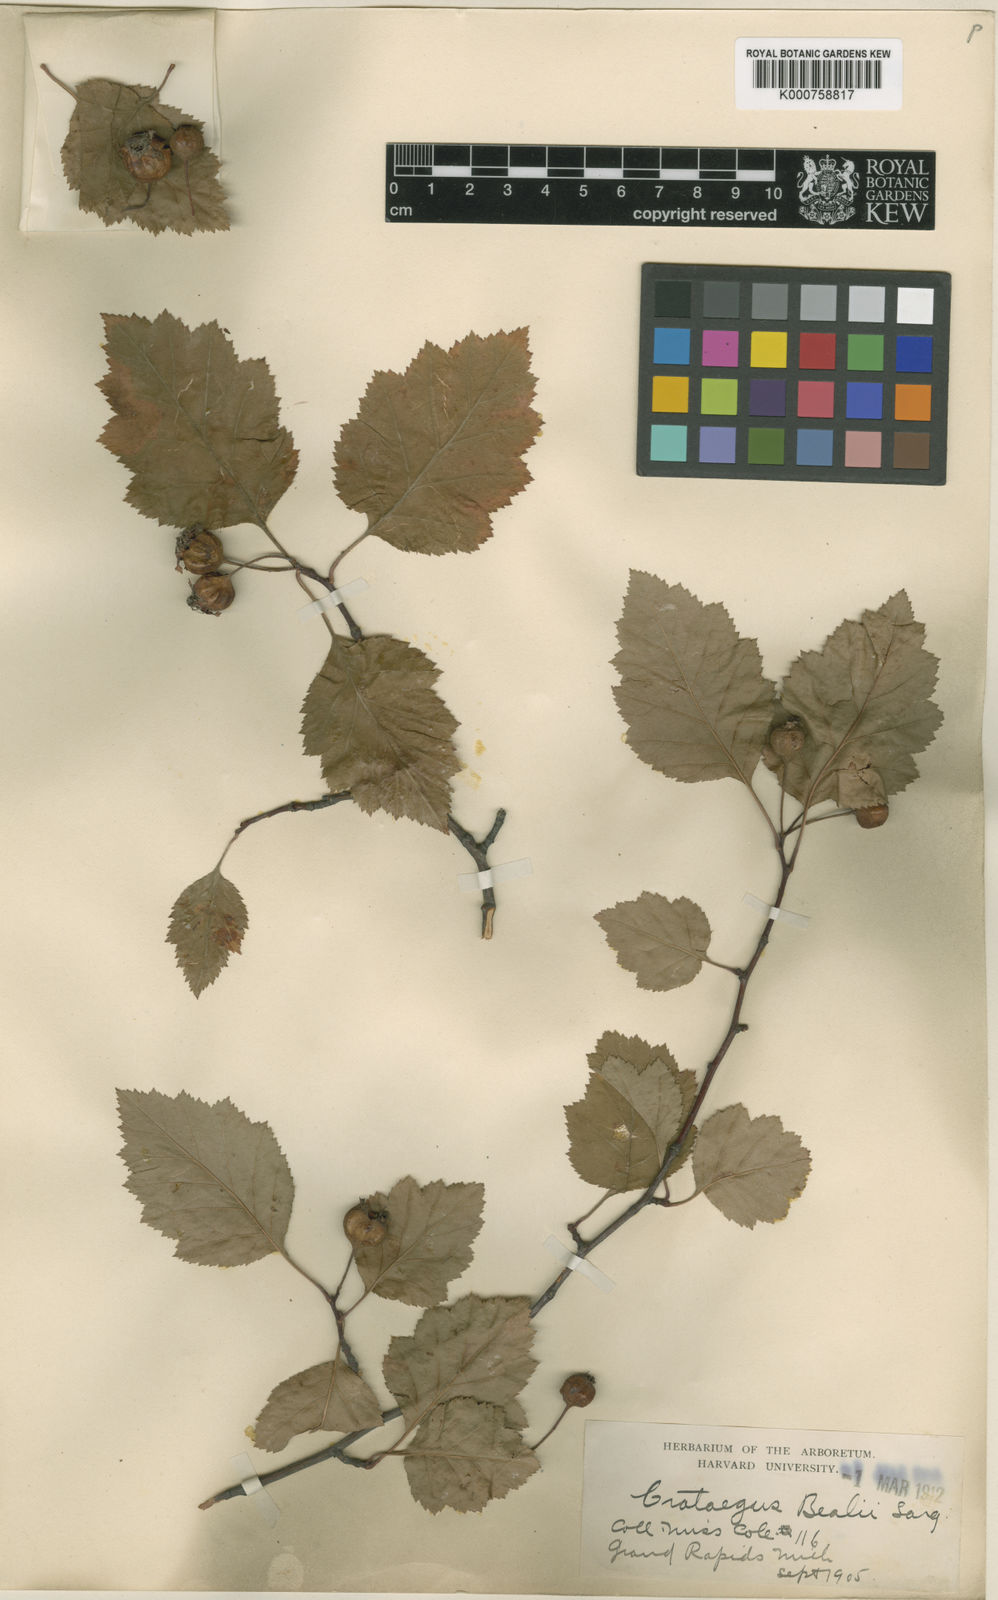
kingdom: Plantae
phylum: Tracheophyta
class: Magnoliopsida
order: Rosales
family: Rosaceae
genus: Crataegus
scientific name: Crataegus bealii
